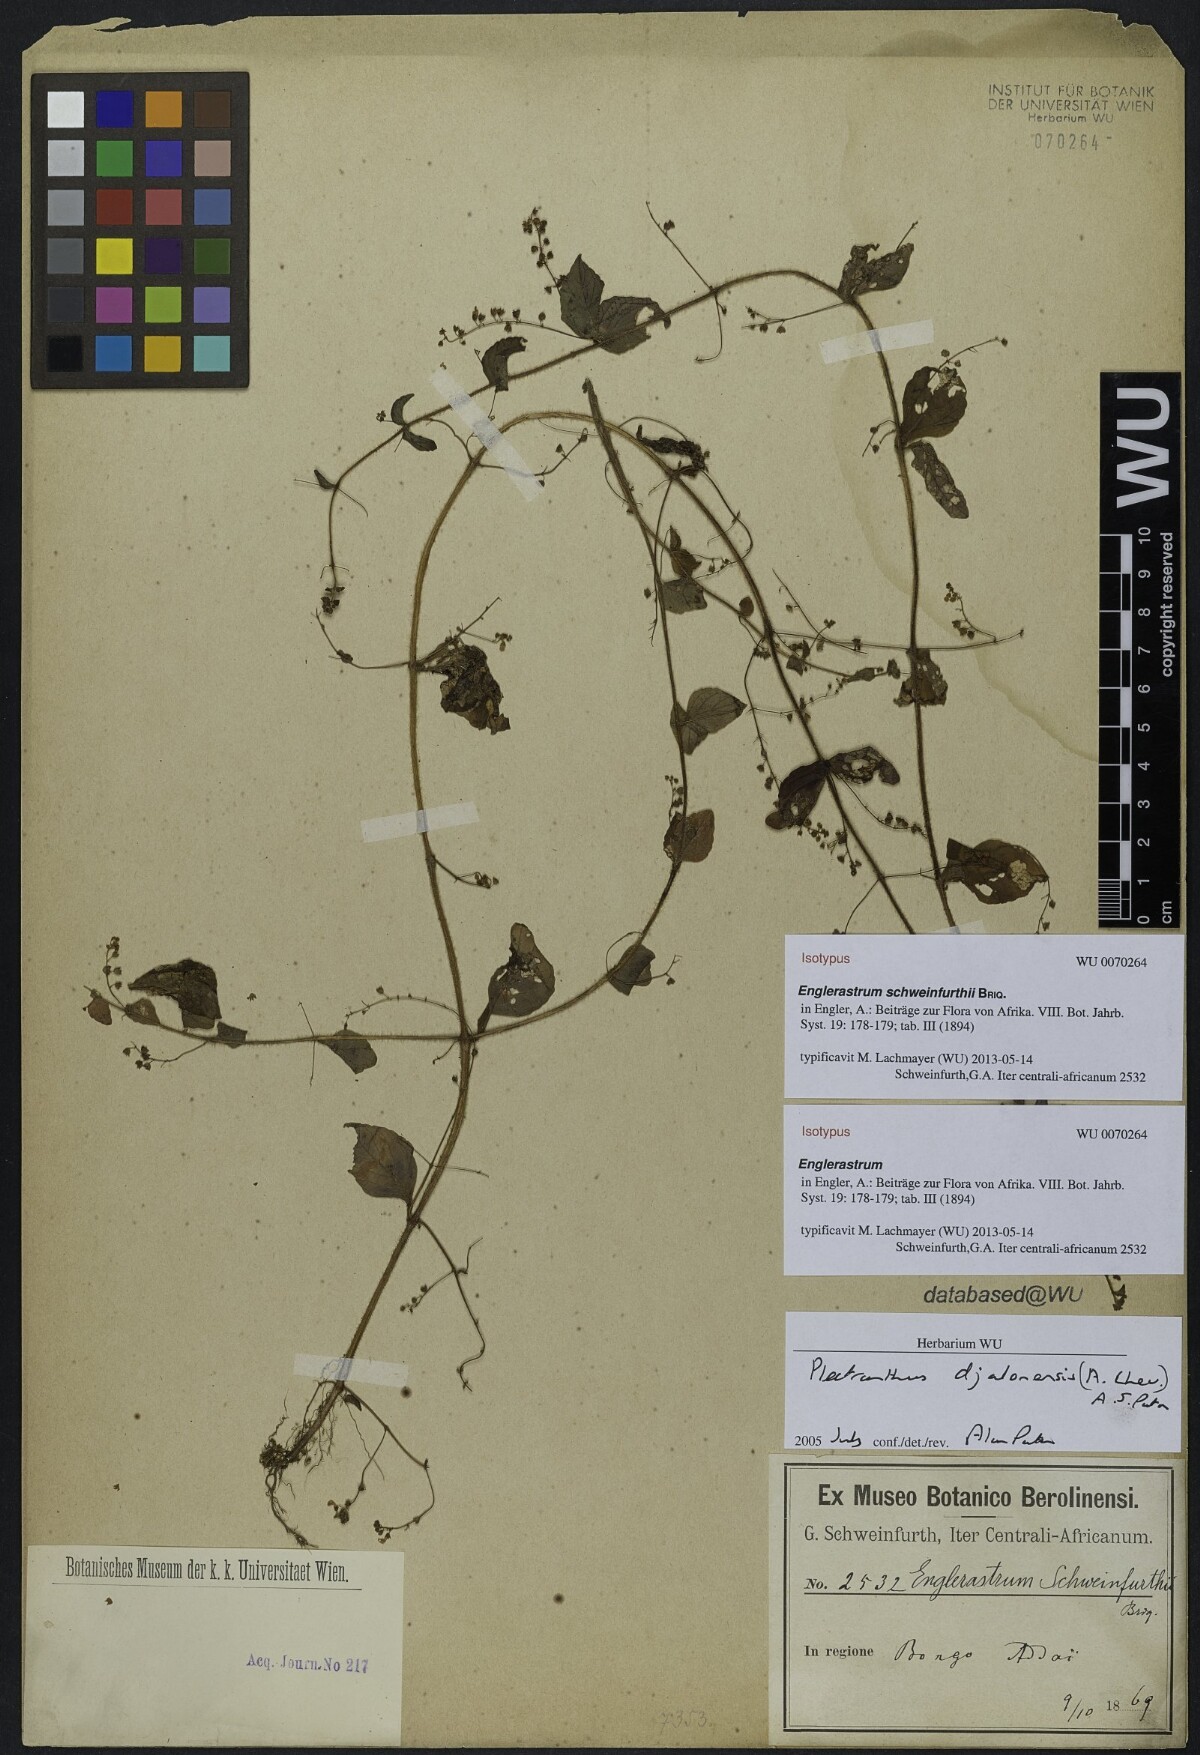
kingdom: Plantae
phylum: Tracheophyta
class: Magnoliopsida
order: Lamiales
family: Lamiaceae
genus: Coleus
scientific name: Coleus rhodesianum
